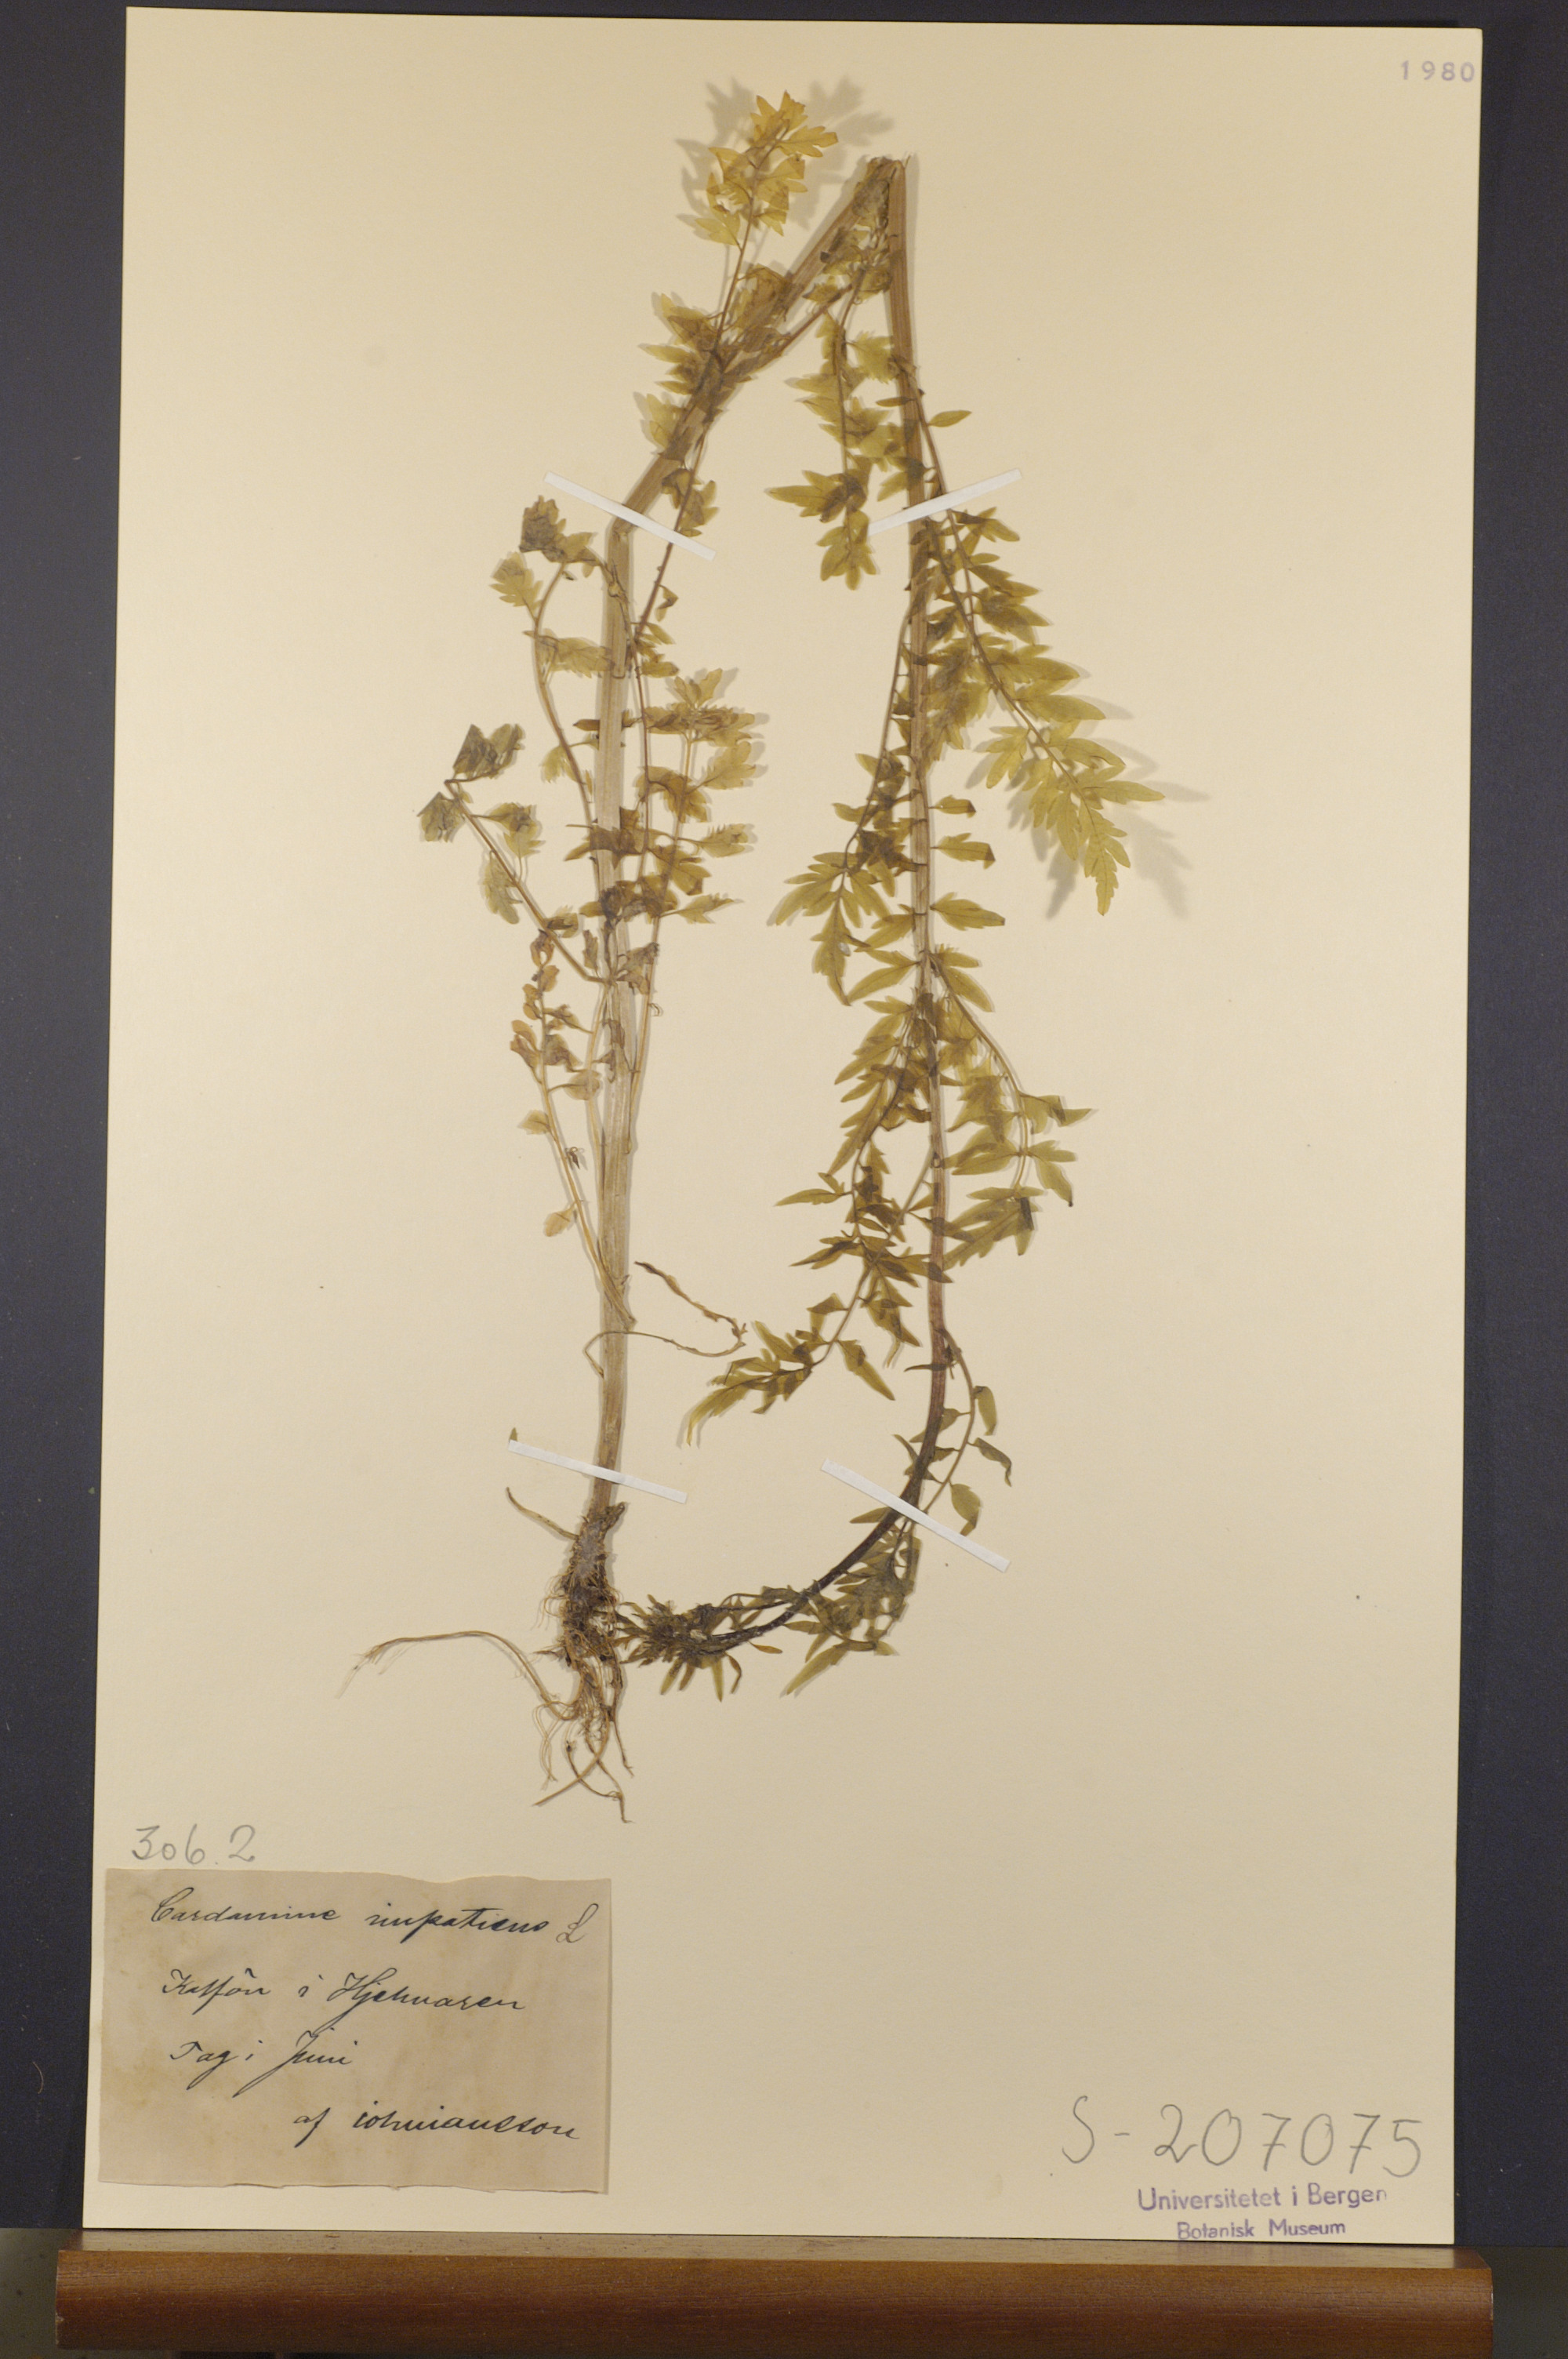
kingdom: Plantae
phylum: Tracheophyta
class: Magnoliopsida
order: Brassicales
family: Brassicaceae
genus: Cardamine
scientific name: Cardamine impatiens
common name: Narrow-leaved bitter-cress
